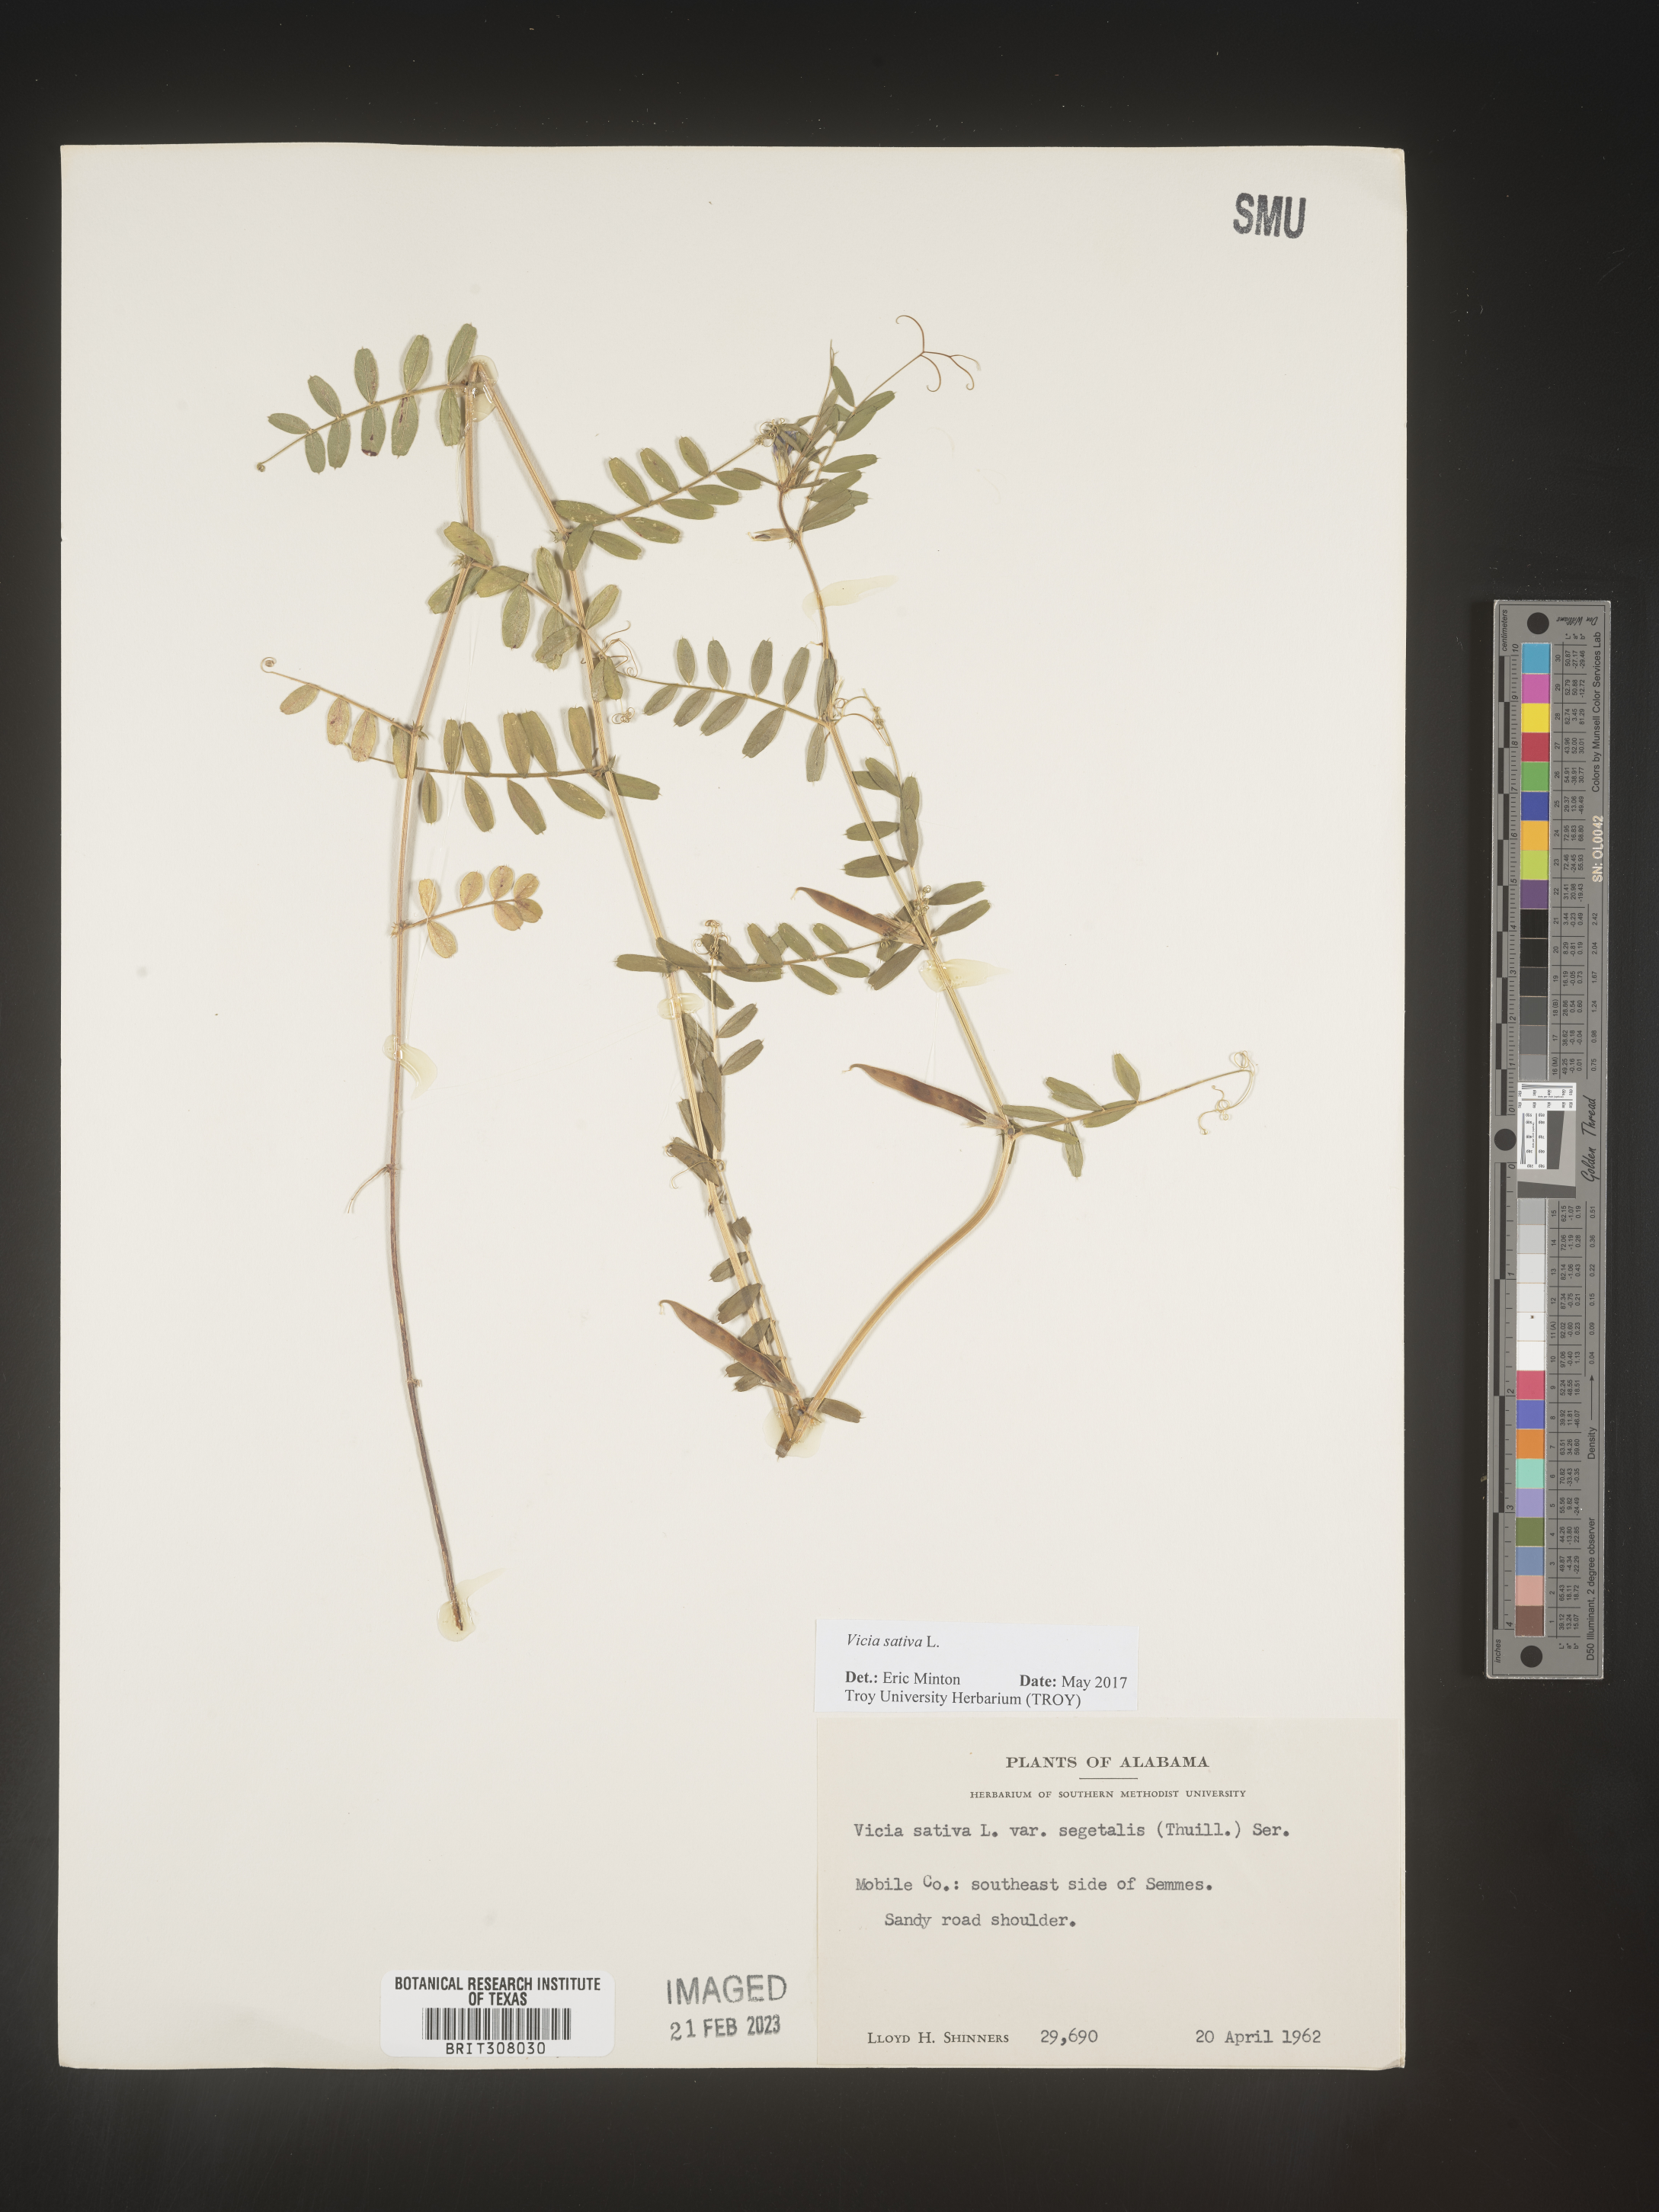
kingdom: Plantae
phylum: Tracheophyta
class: Magnoliopsida
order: Fabales
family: Fabaceae
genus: Vicia
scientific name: Vicia sativa
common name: Garden vetch
